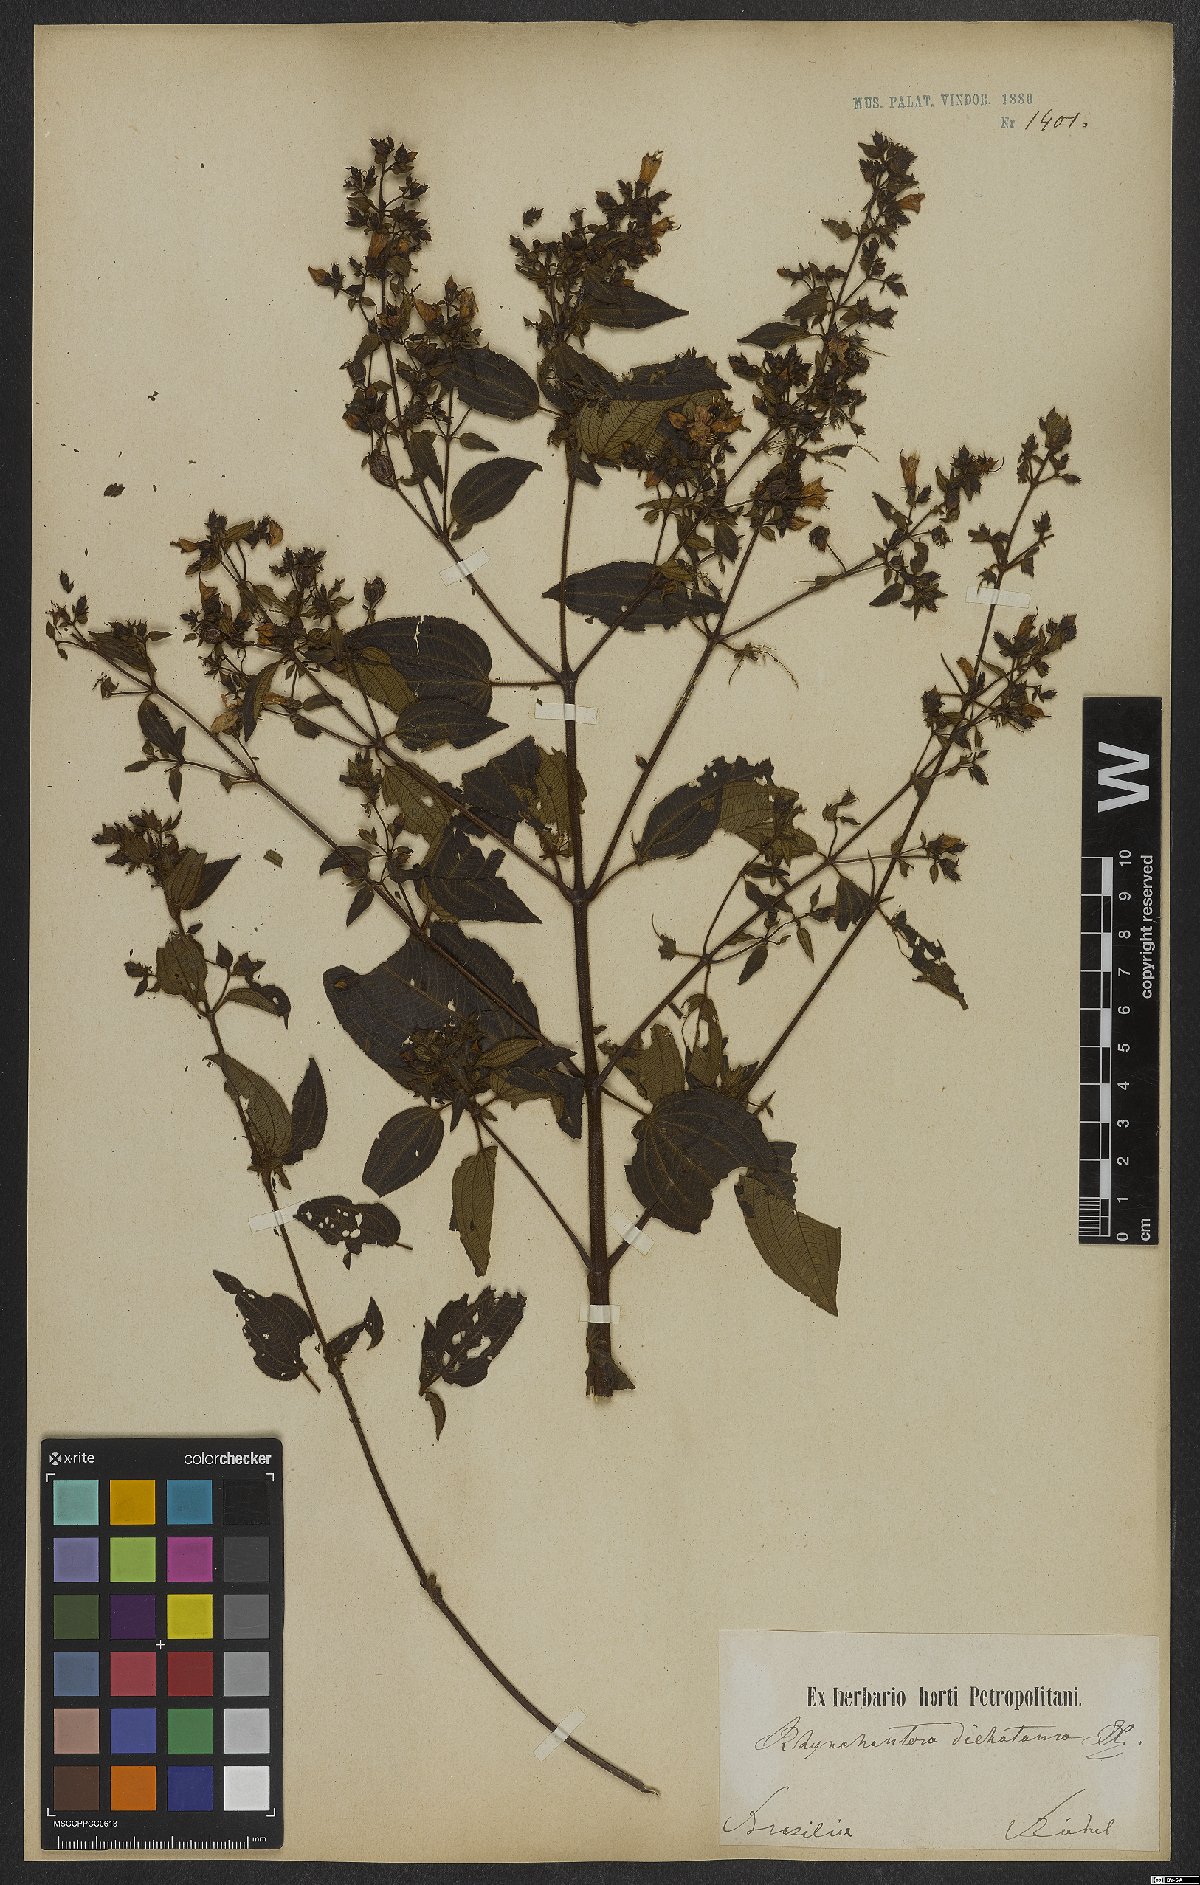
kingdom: Plantae
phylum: Tracheophyta
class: Magnoliopsida
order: Myrtales
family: Melastomataceae
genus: Rhynchanthera
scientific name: Rhynchanthera dichotoma
